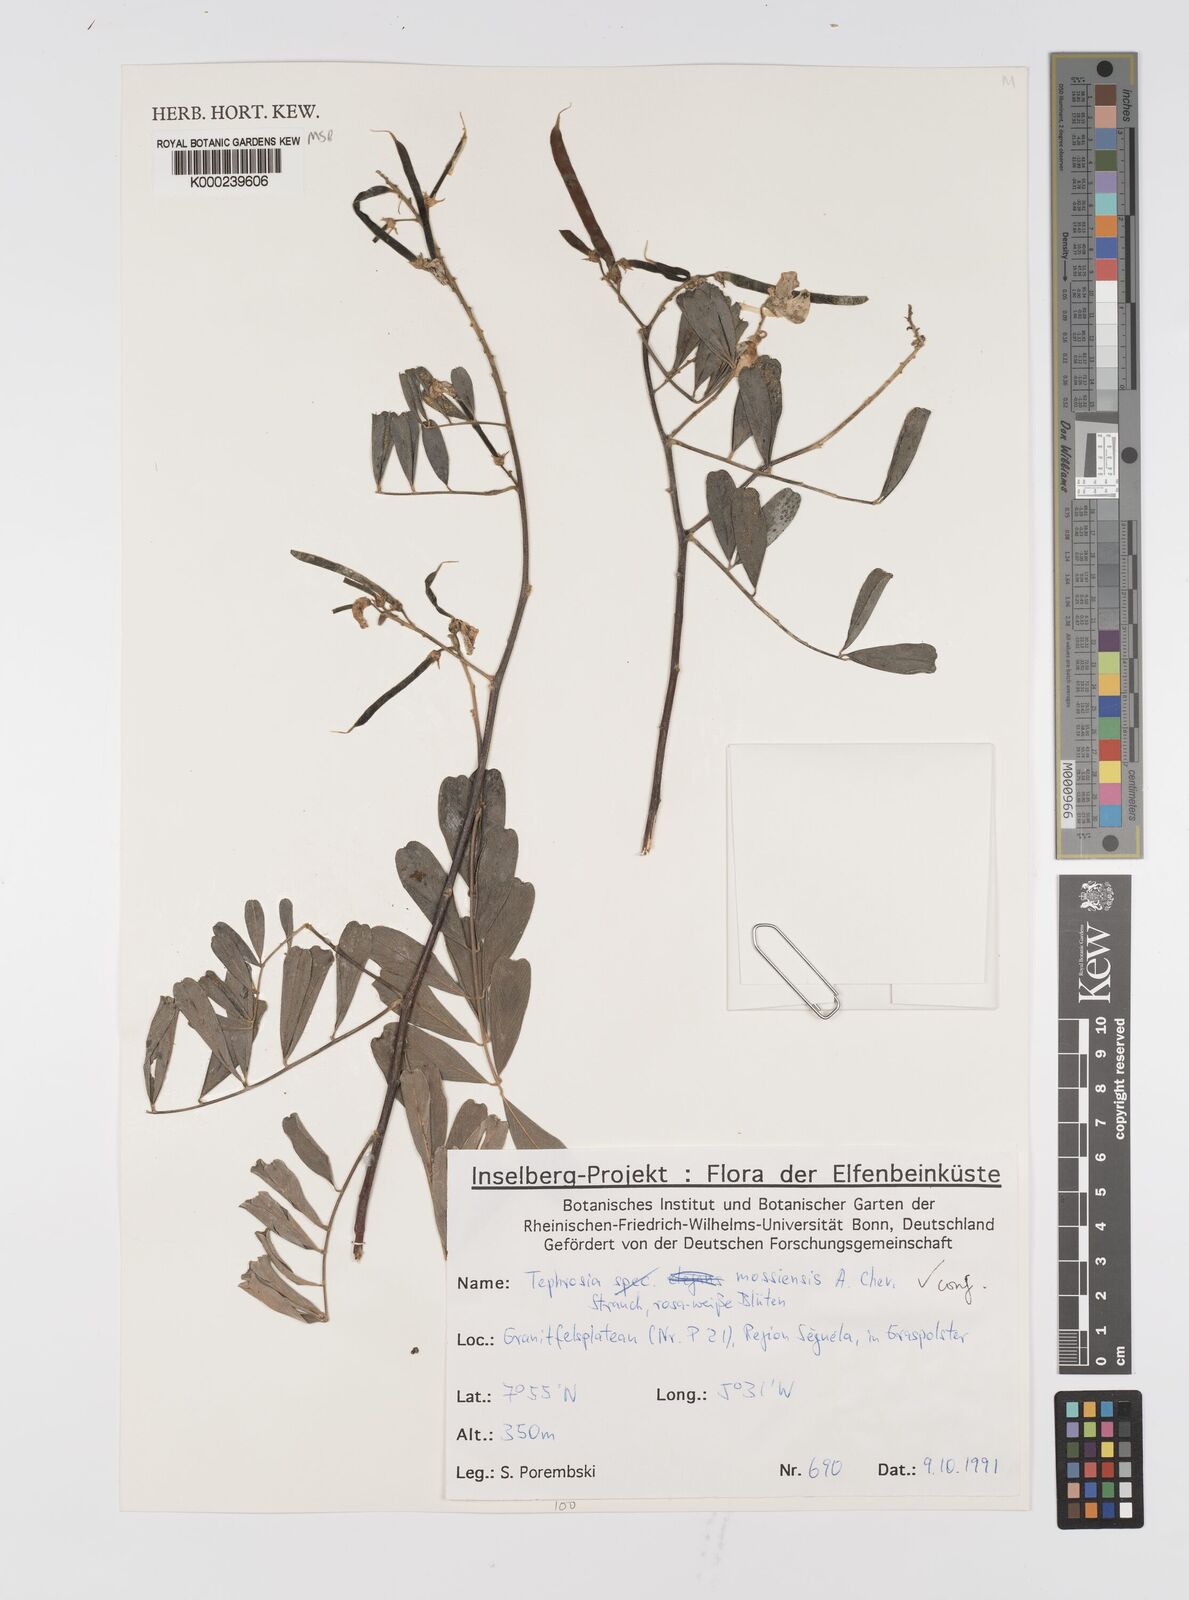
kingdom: Plantae
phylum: Tracheophyta
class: Magnoliopsida
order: Fabales
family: Fabaceae
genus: Tephrosia
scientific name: Tephrosia mossiensis
